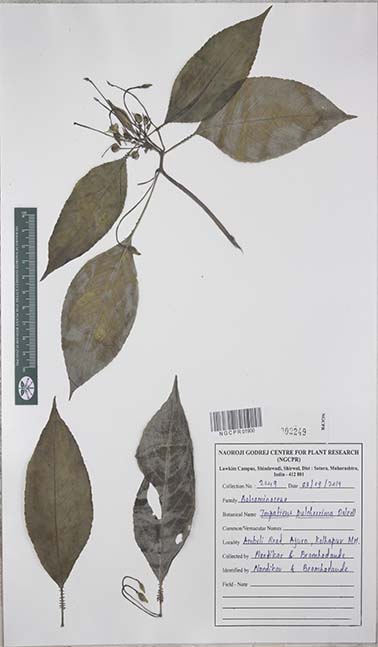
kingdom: Plantae
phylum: Tracheophyta
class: Magnoliopsida
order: Ericales
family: Balsaminaceae
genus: Impatiens
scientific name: Impatiens pulcherrima
